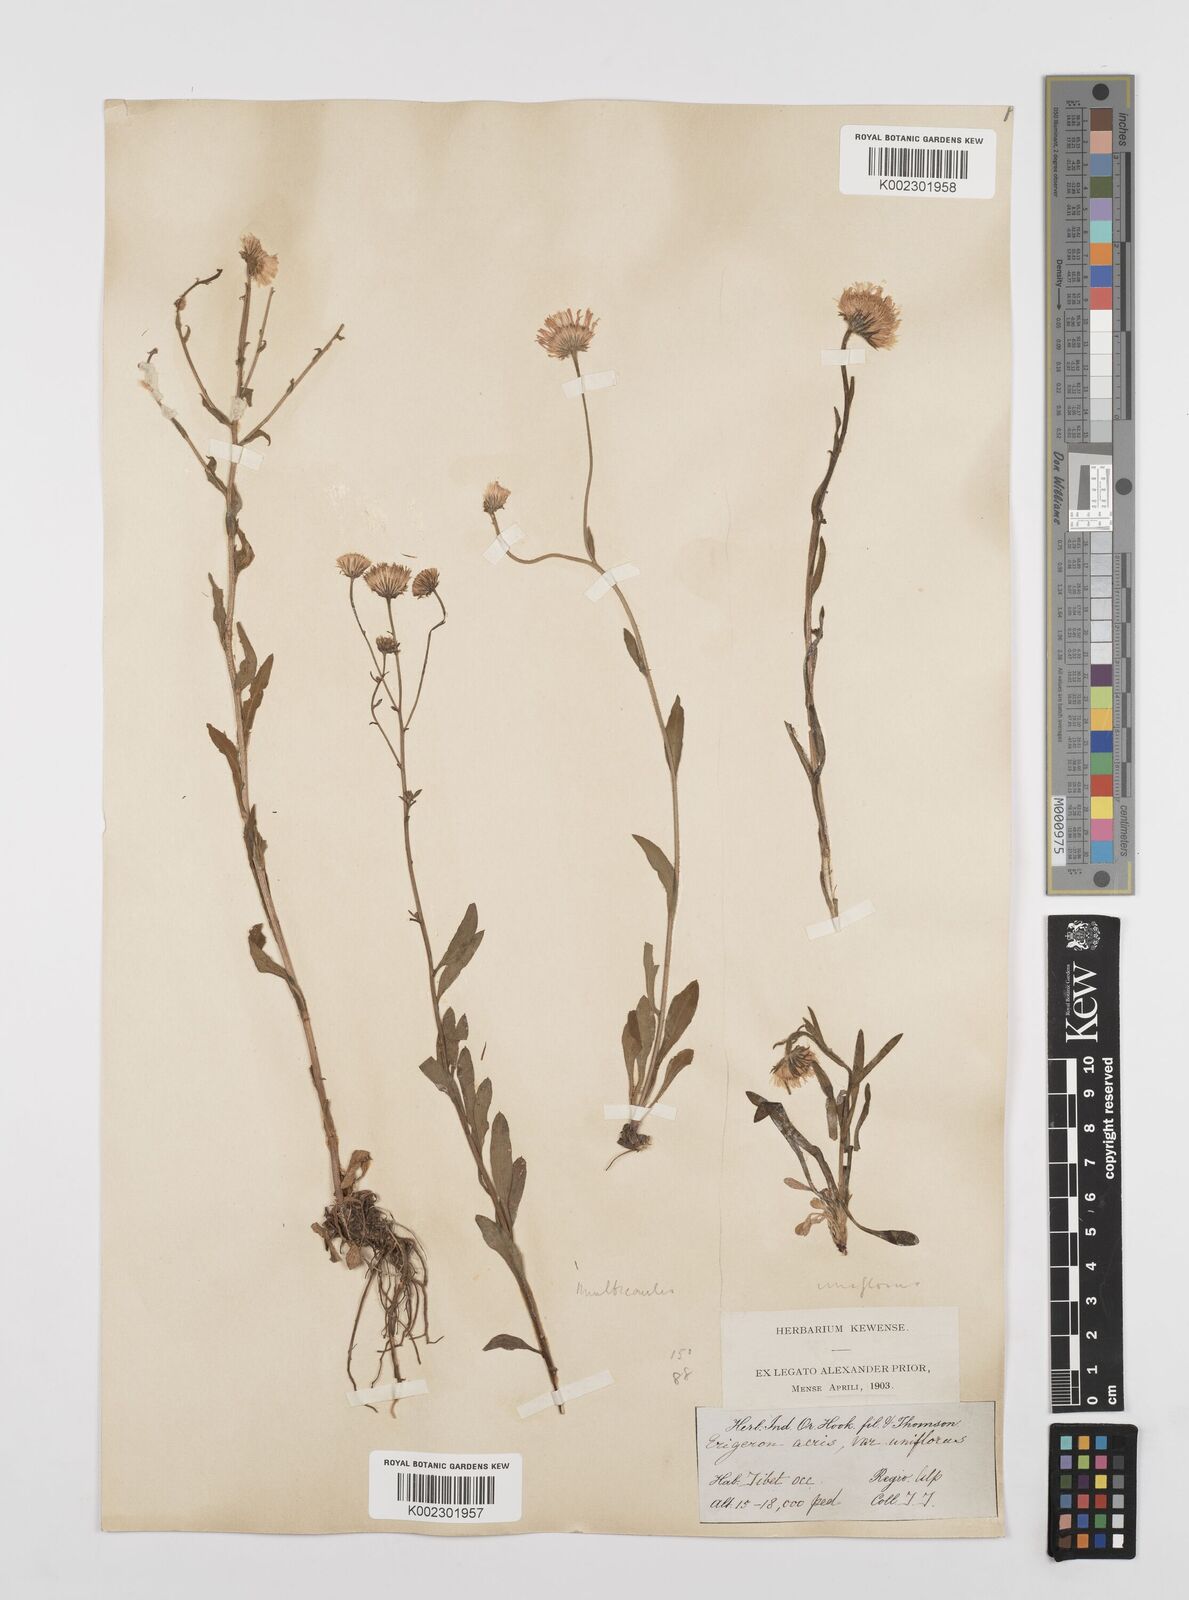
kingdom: Plantae
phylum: Tracheophyta
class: Magnoliopsida
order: Asterales
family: Asteraceae
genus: Erigeron
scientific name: Erigeron alpinus
